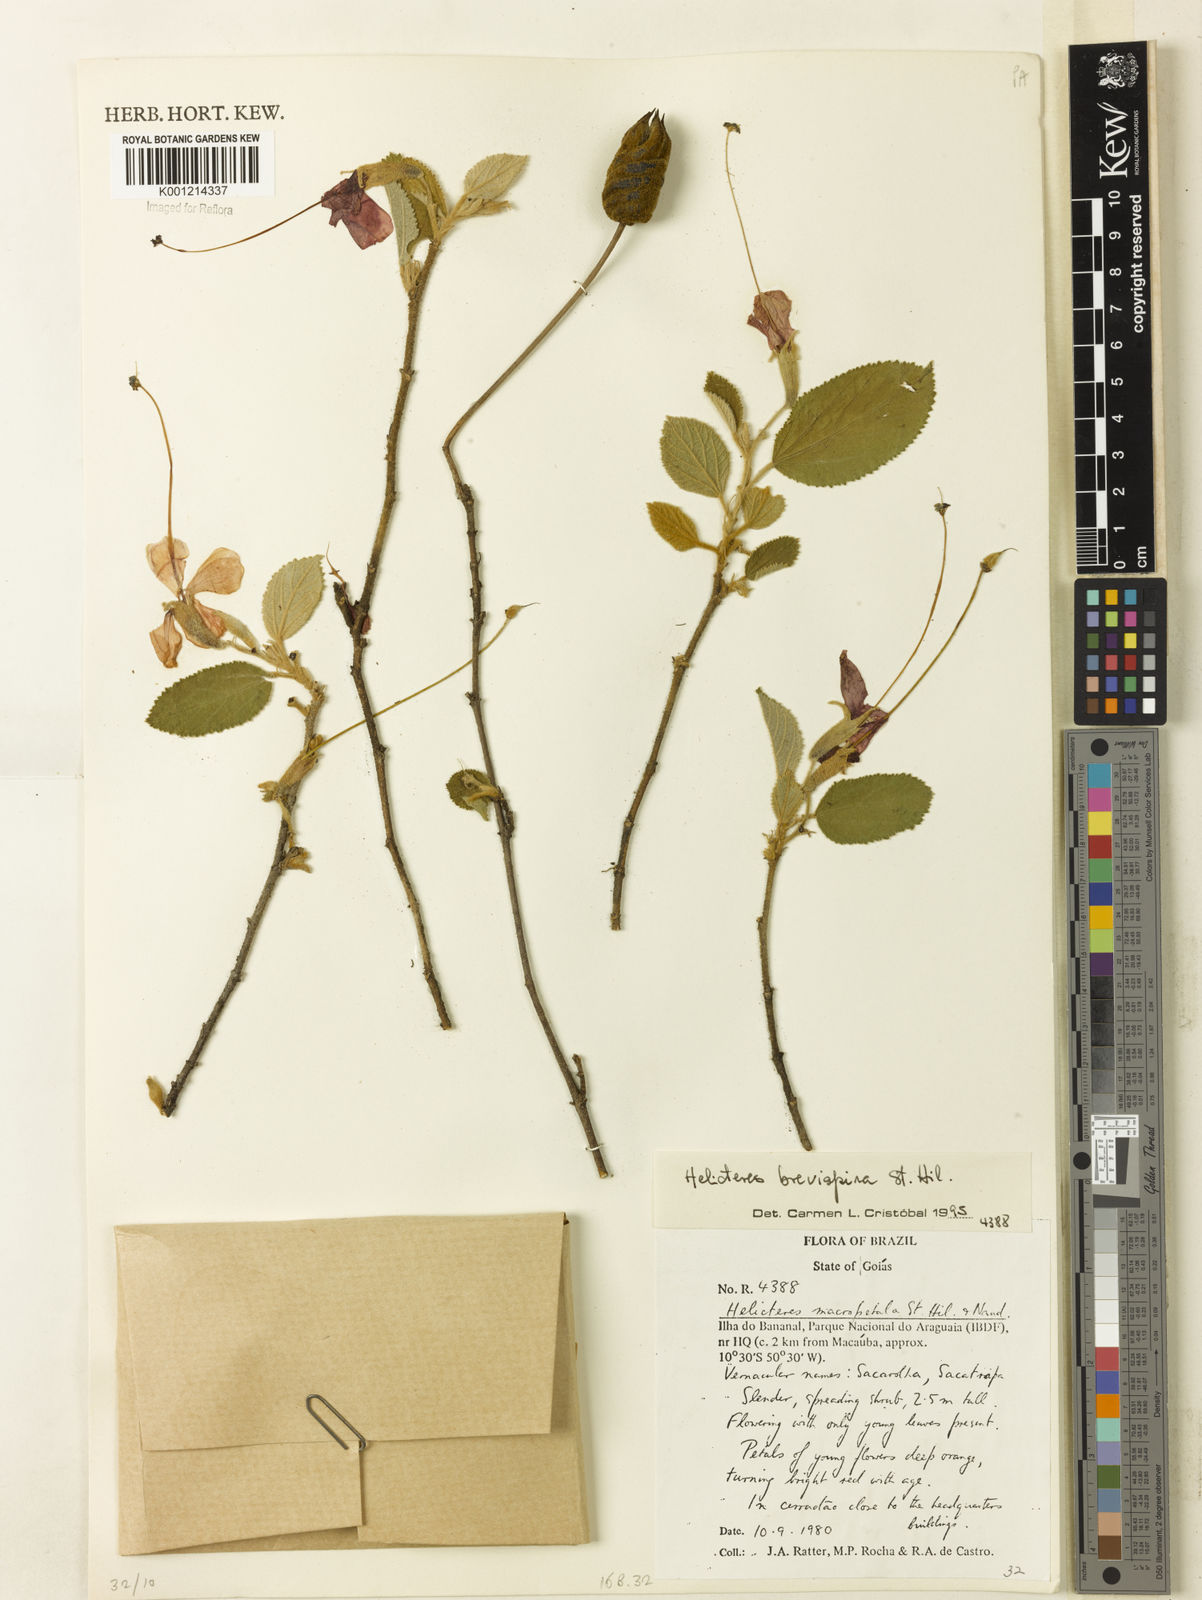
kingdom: Plantae
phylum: Tracheophyta
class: Magnoliopsida
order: Malvales
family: Malvaceae
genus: Helicteres
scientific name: Helicteres
